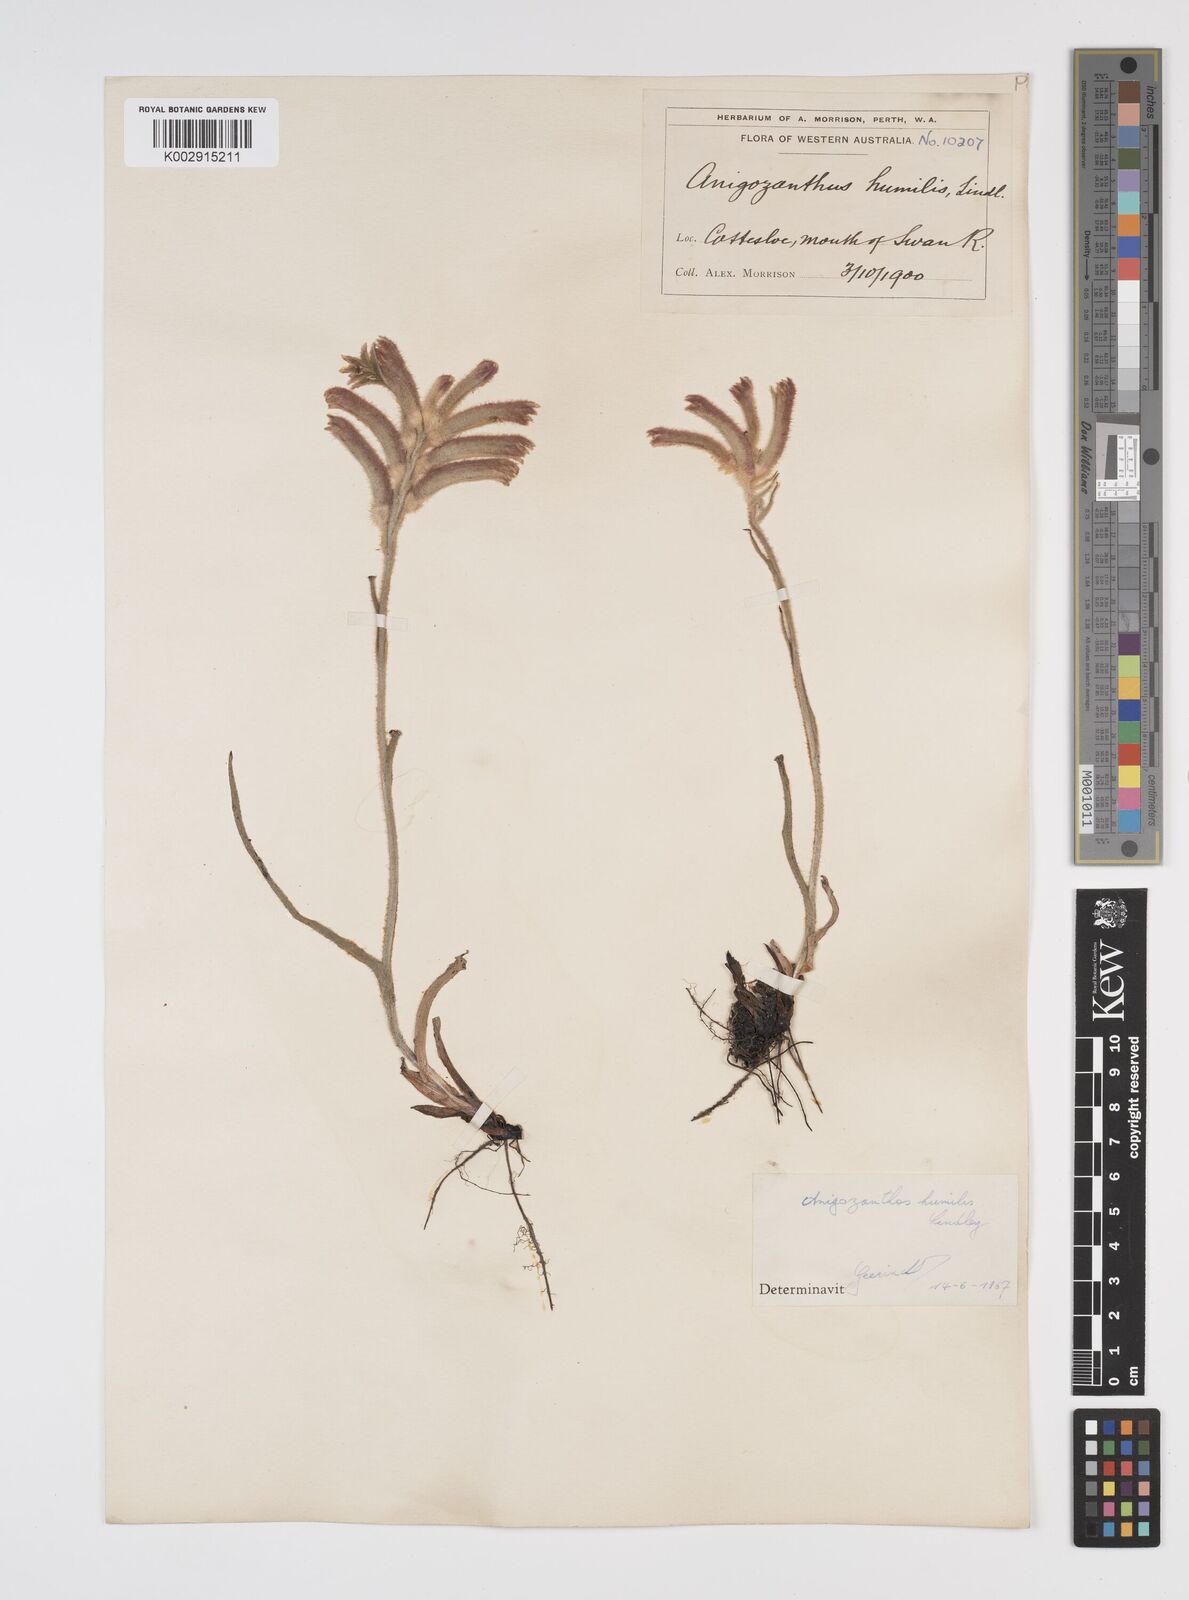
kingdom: Plantae
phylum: Tracheophyta
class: Liliopsida
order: Commelinales
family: Haemodoraceae
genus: Anigozanthos
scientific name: Anigozanthos humilis
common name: Cat's-paw
